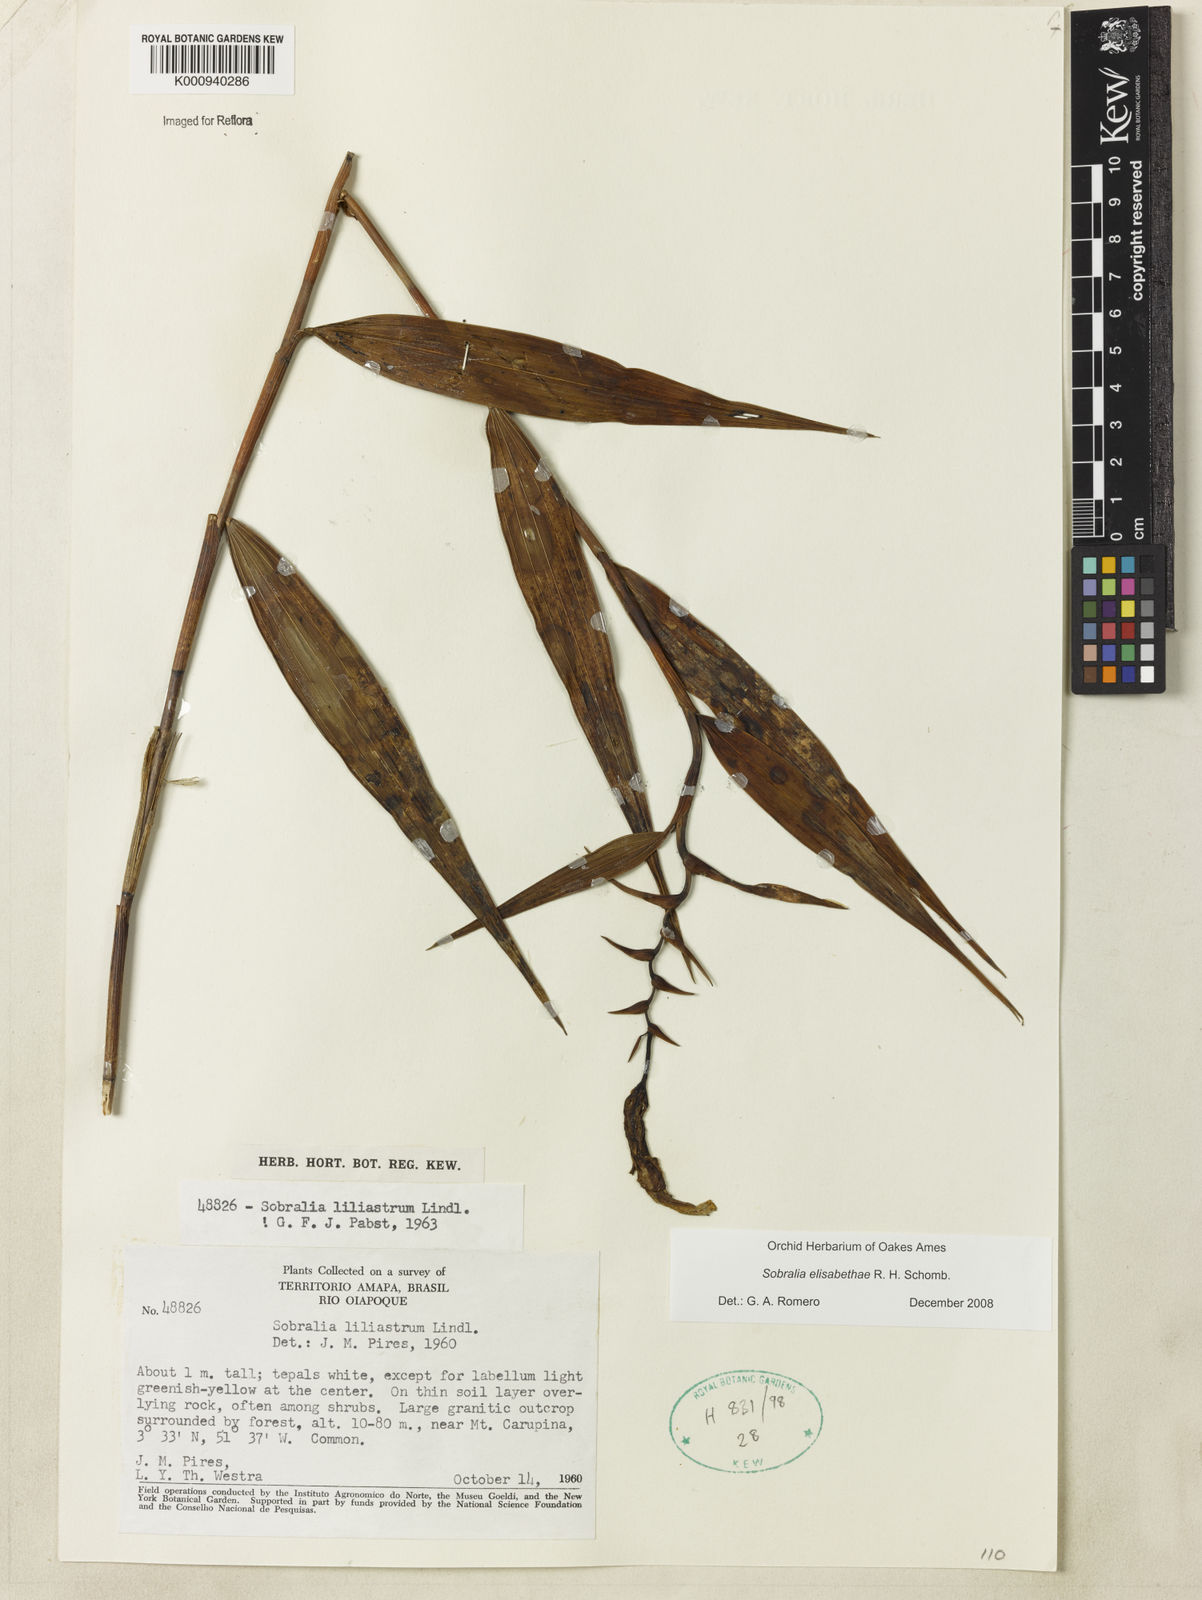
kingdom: Plantae
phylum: Tracheophyta
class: Liliopsida
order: Asparagales
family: Orchidaceae
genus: Sobralia
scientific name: Sobralia elisabethae
